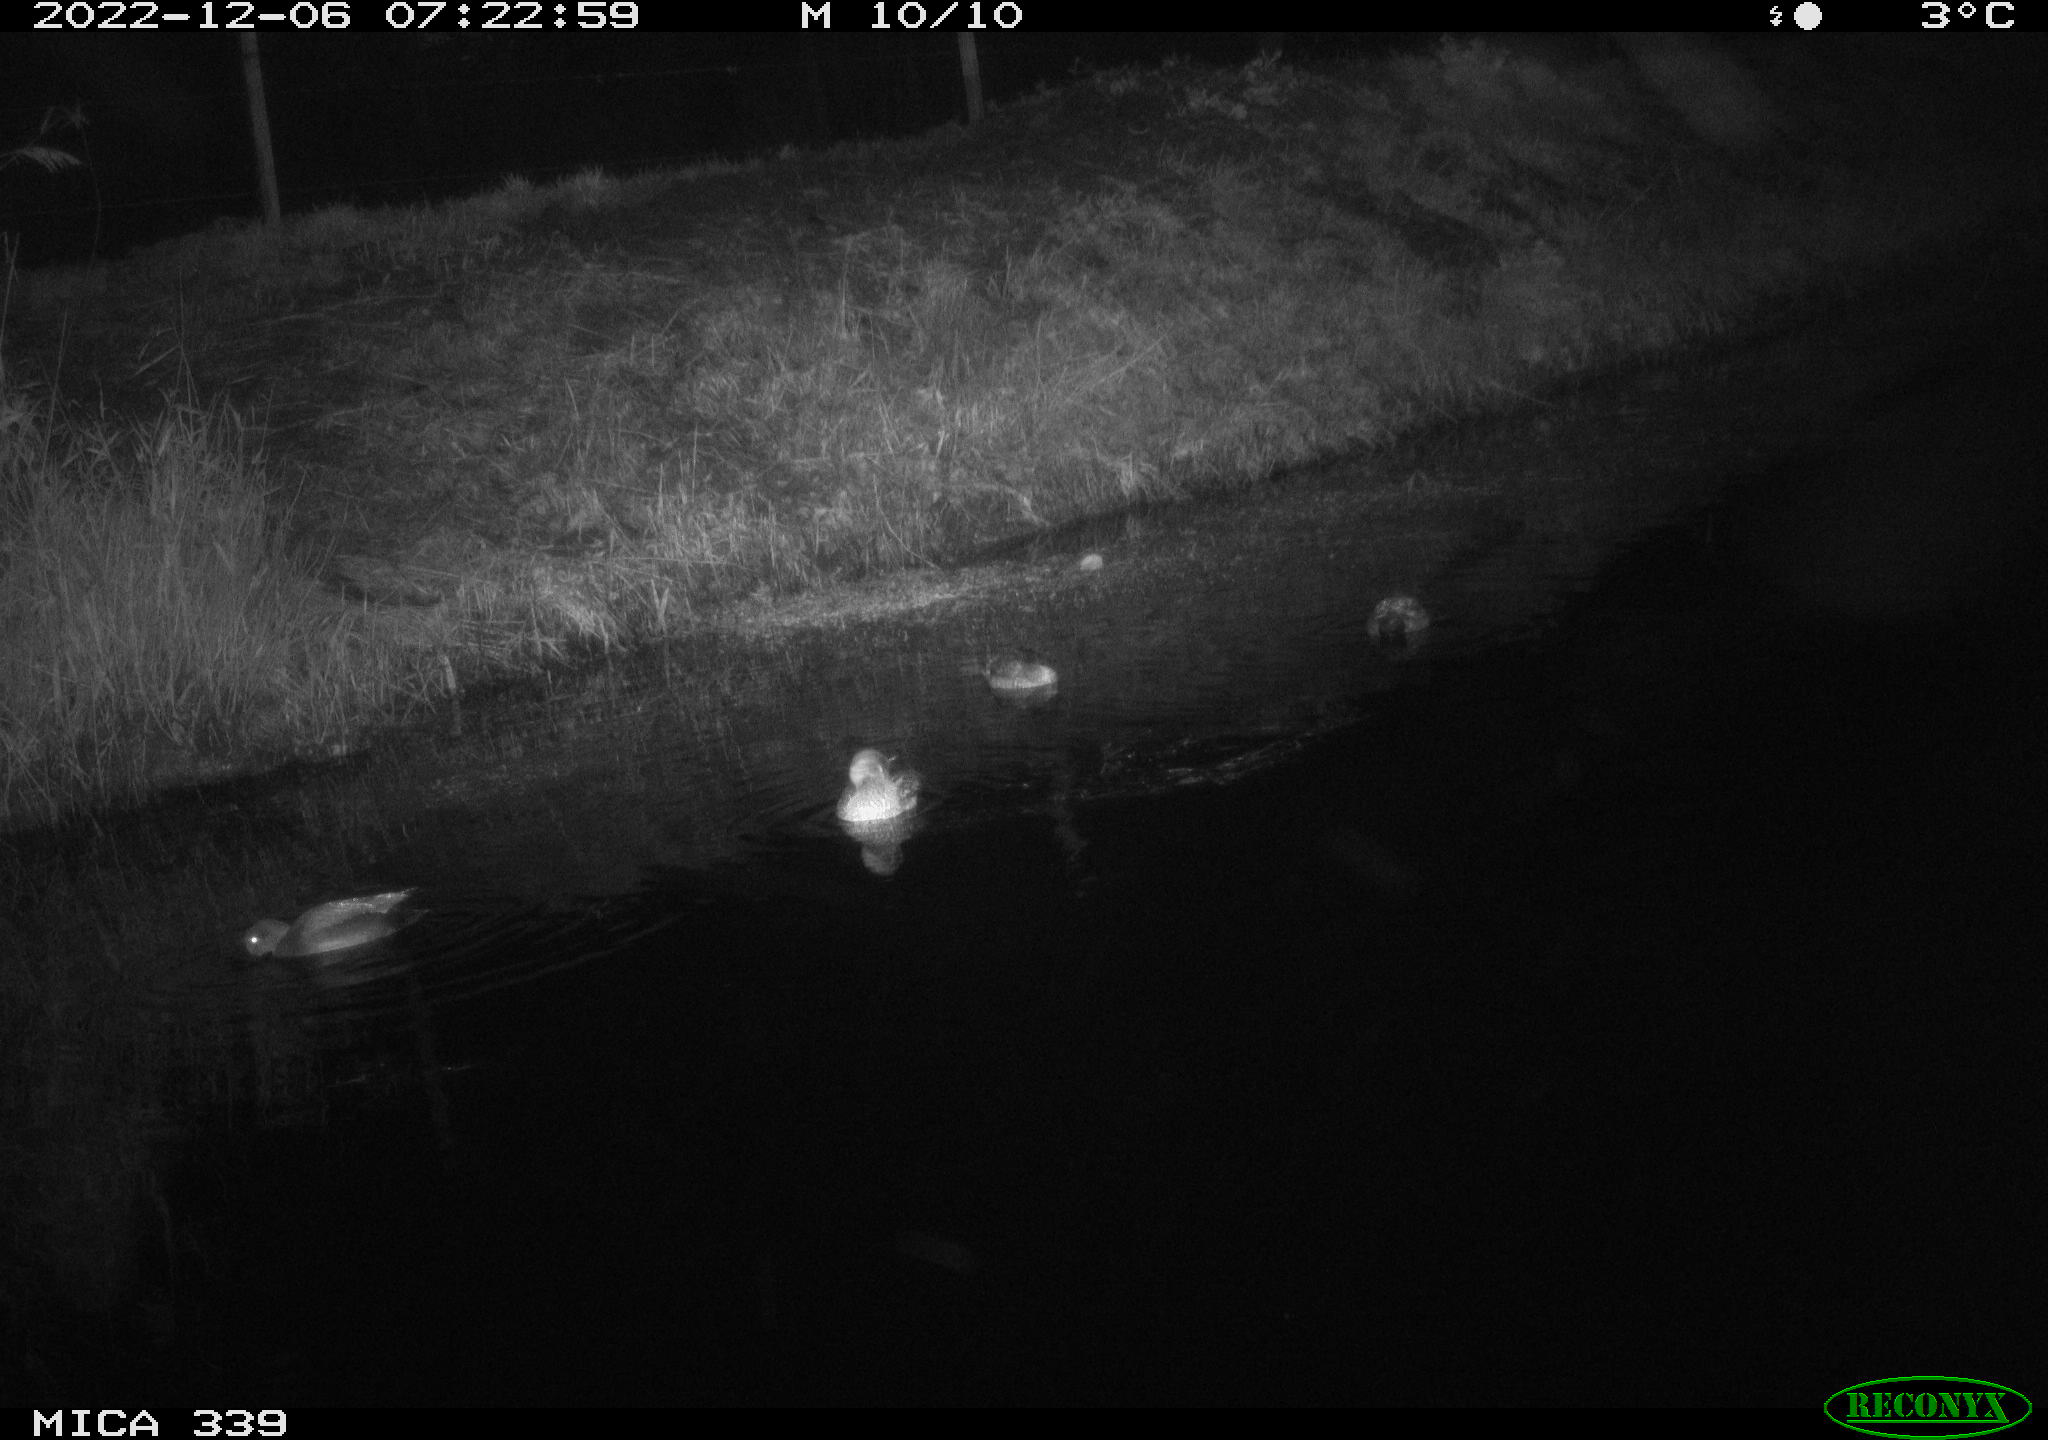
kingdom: Animalia
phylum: Chordata
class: Aves
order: Anseriformes
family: Anatidae
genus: Anas
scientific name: Anas
